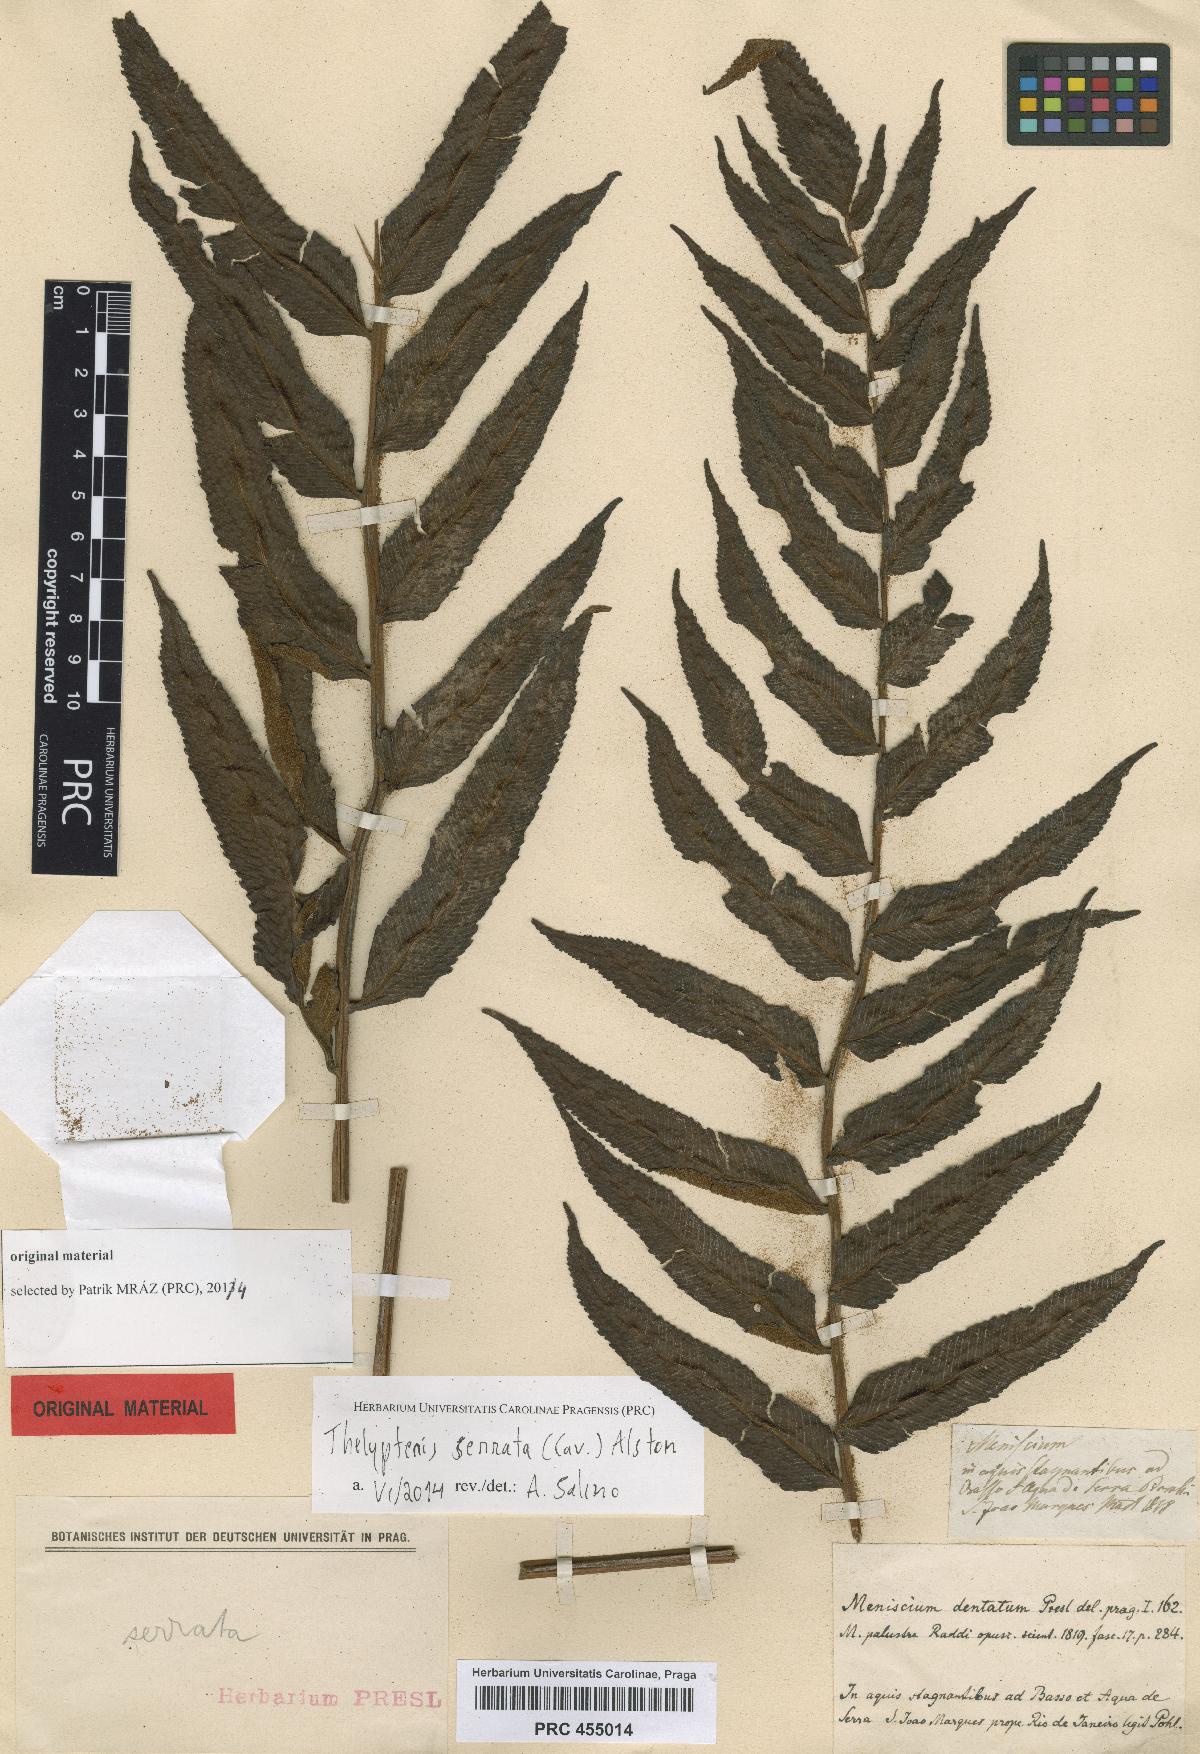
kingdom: Plantae
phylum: Tracheophyta
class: Polypodiopsida
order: Polypodiales
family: Thelypteridaceae
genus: Meniscium
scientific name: Meniscium serratum
